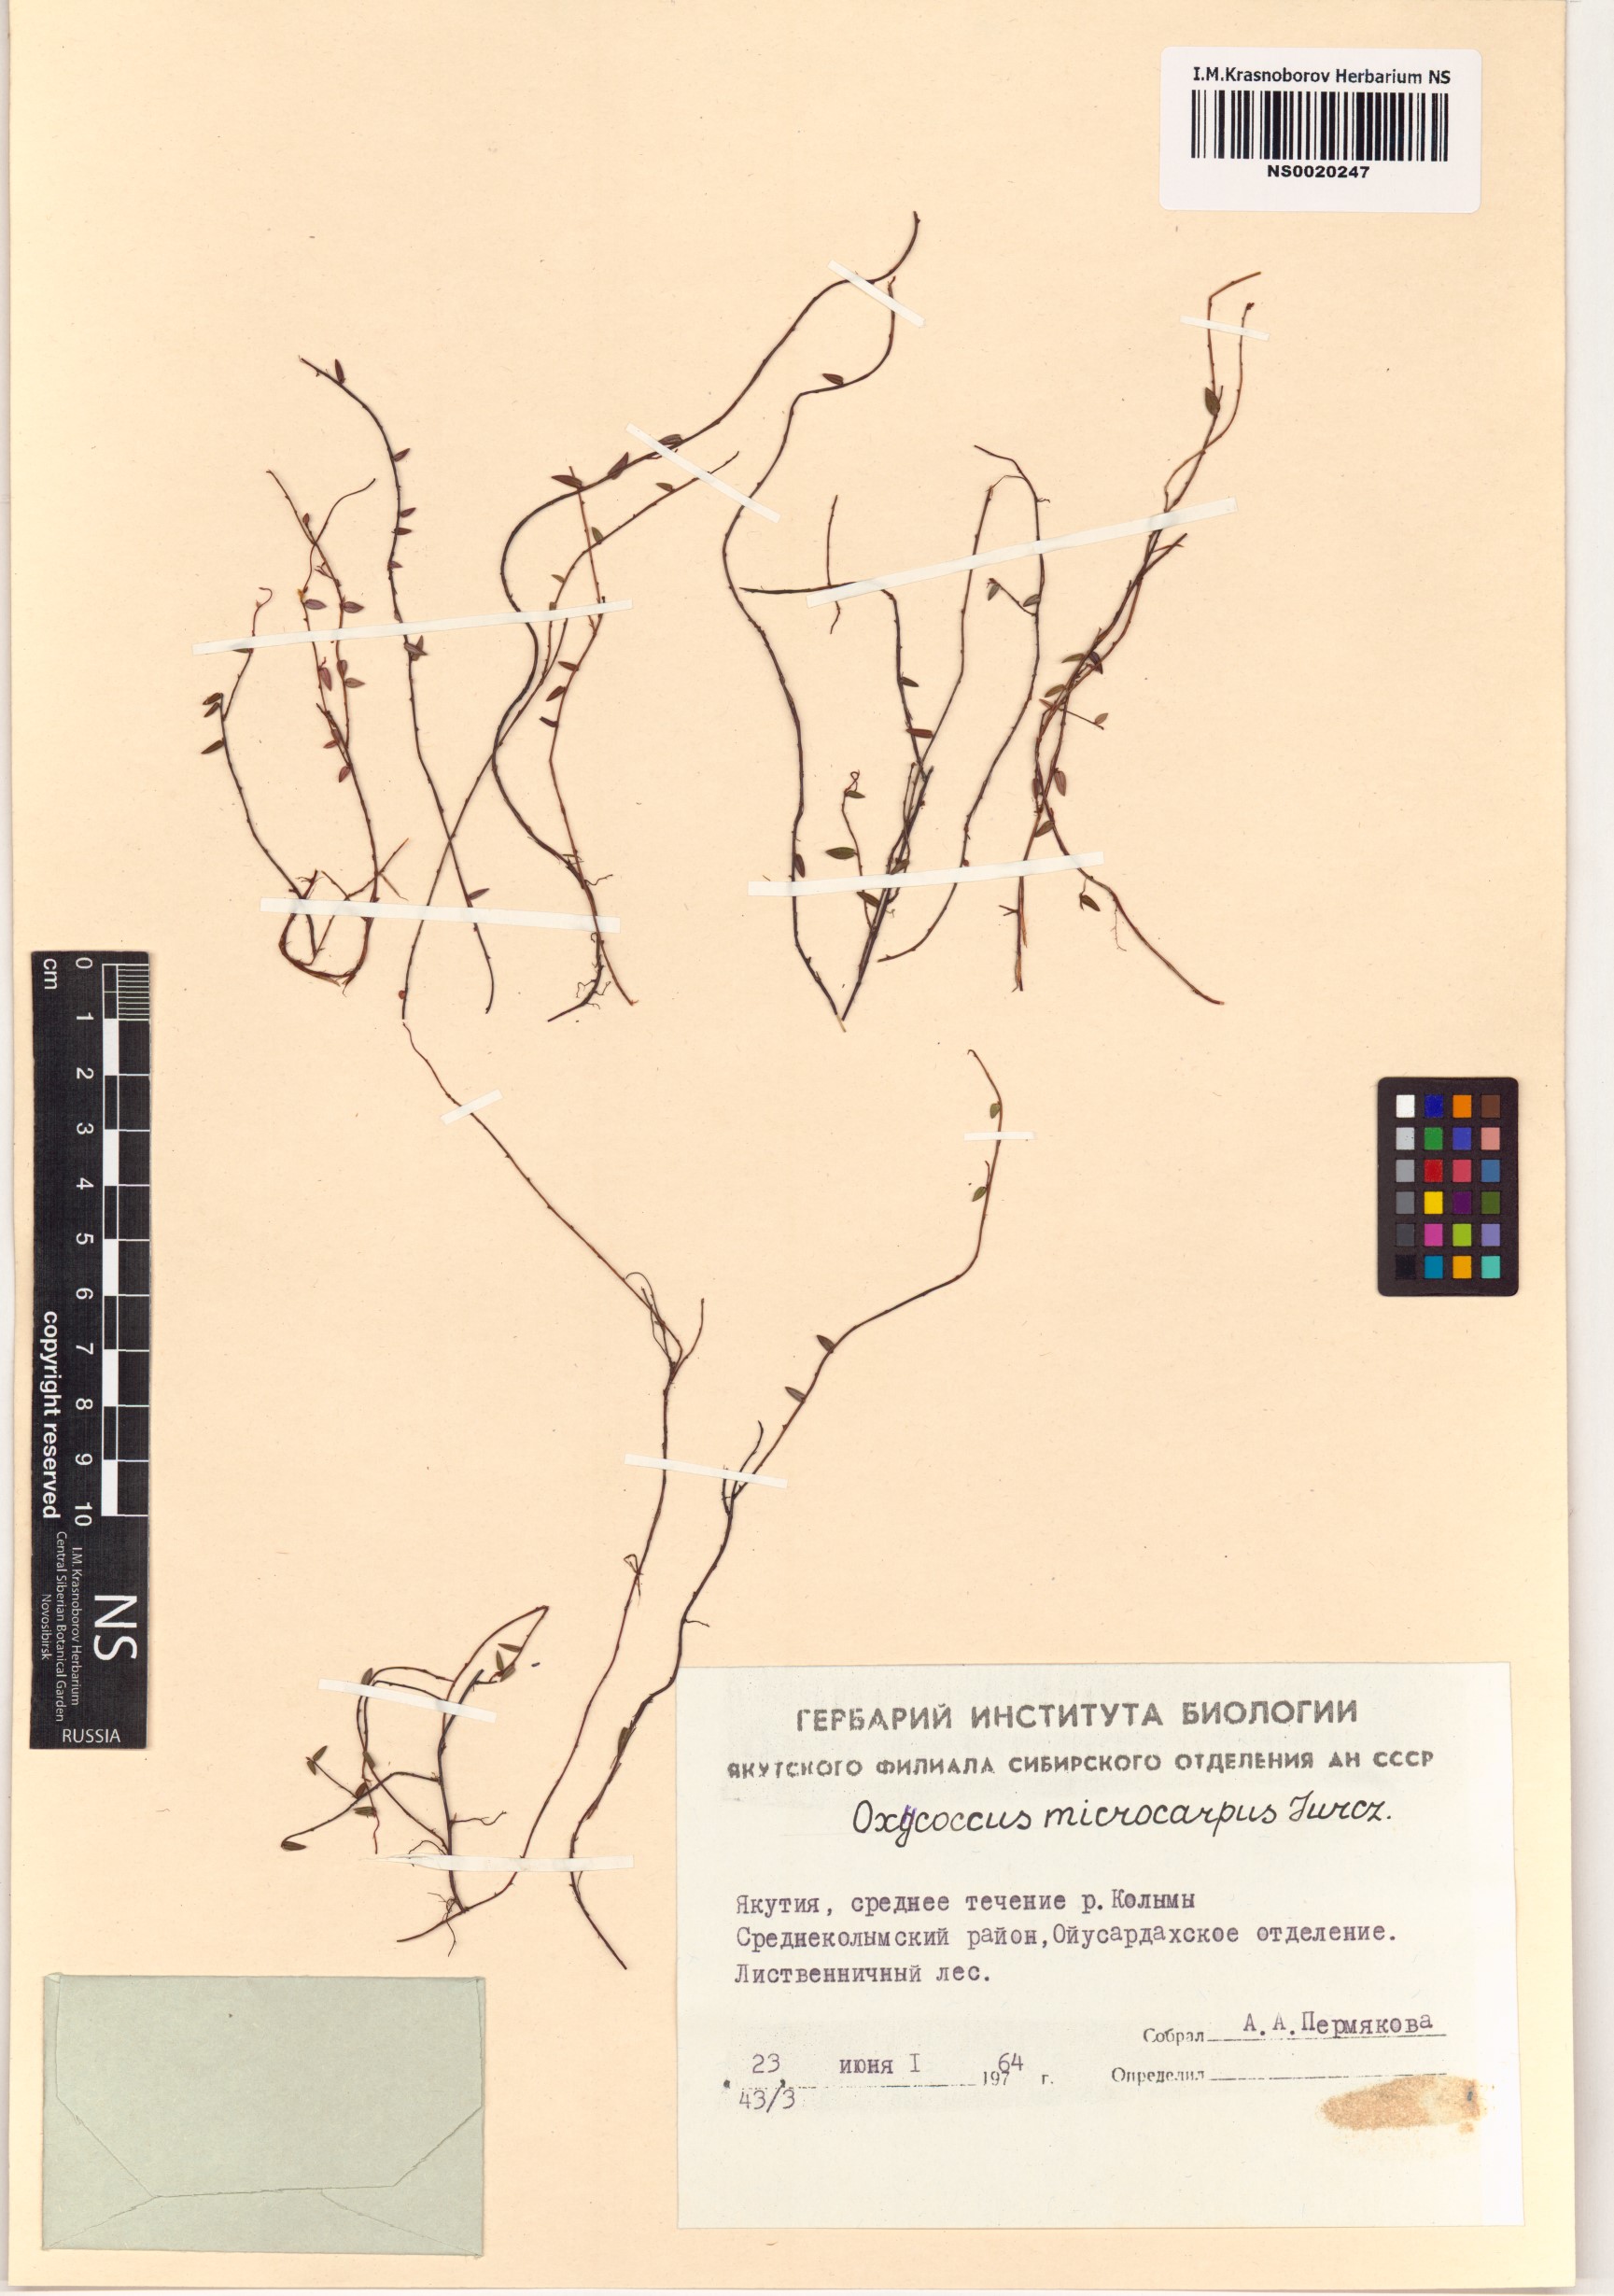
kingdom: Plantae
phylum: Tracheophyta
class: Magnoliopsida
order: Ericales
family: Ericaceae
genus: Vaccinium
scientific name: Vaccinium microcarpum
